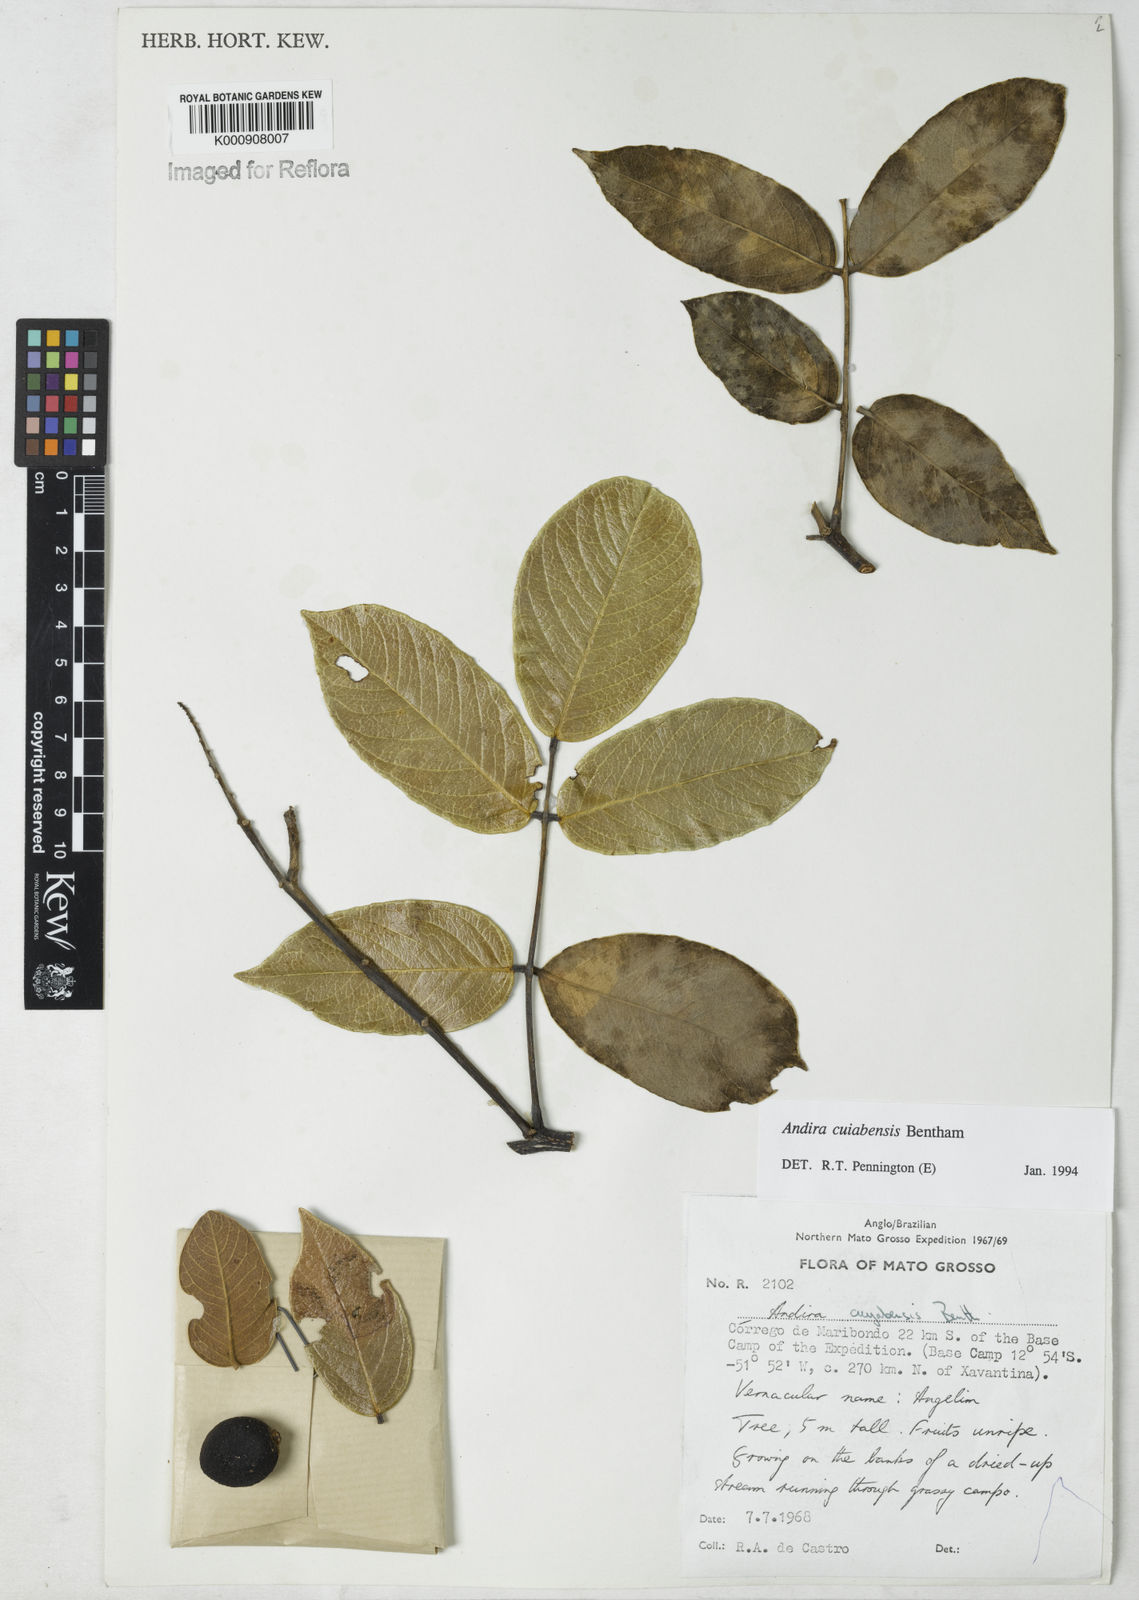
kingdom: Plantae
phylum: Tracheophyta
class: Magnoliopsida
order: Fabales
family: Fabaceae
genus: Andira
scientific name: Andira cujabensis
